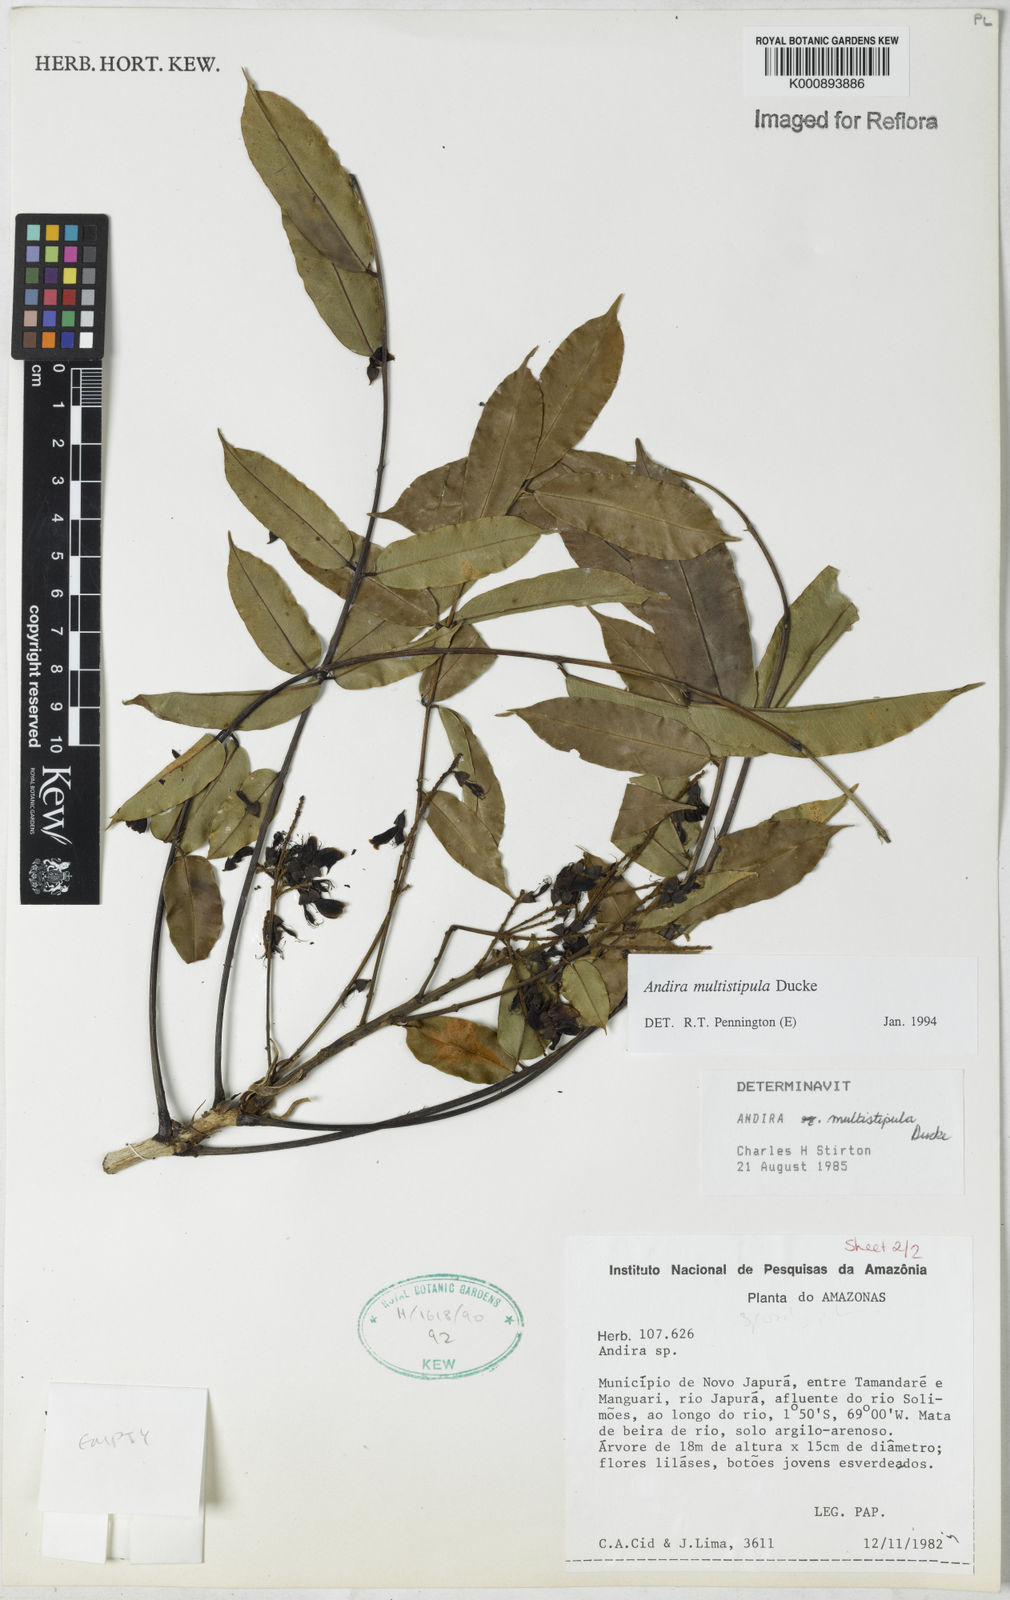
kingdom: Plantae
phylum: Tracheophyta
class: Magnoliopsida
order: Fabales
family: Fabaceae
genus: Andira
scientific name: Andira multistipula
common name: Pisho
